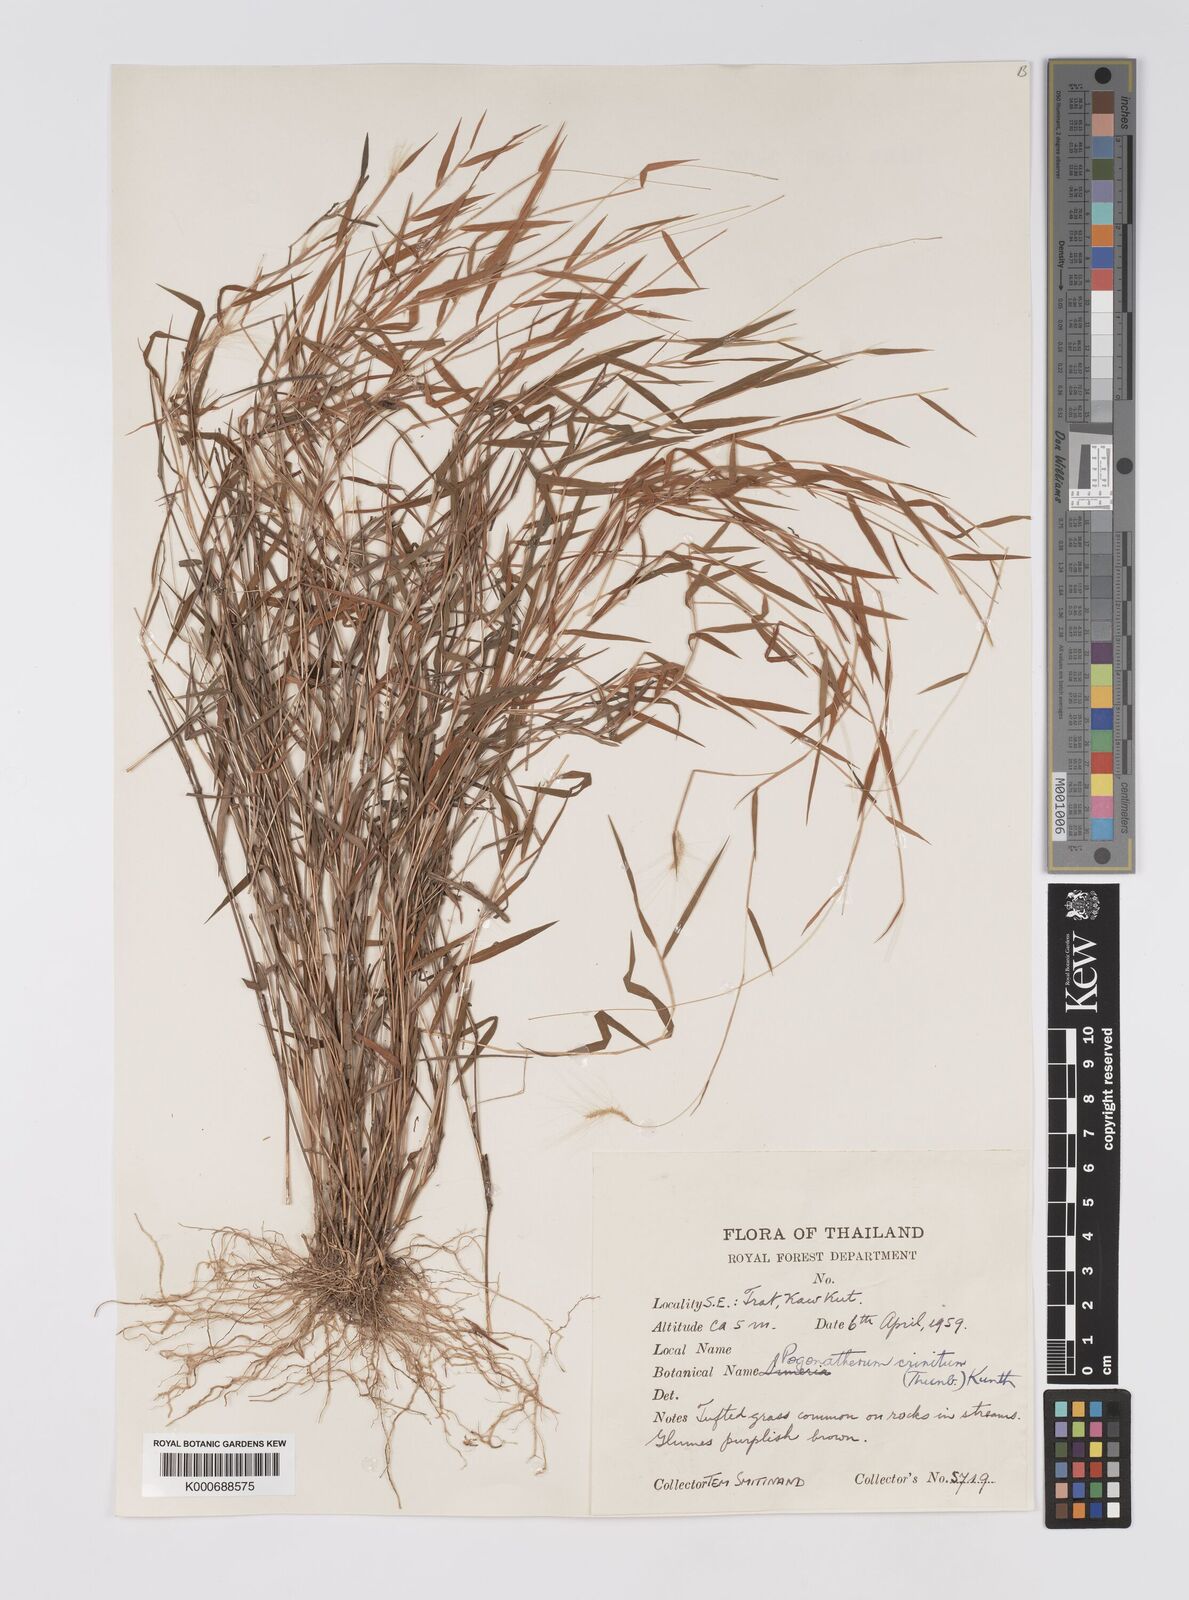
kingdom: Plantae
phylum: Tracheophyta
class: Liliopsida
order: Poales
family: Poaceae
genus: Pogonatherum
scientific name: Pogonatherum crinitum
